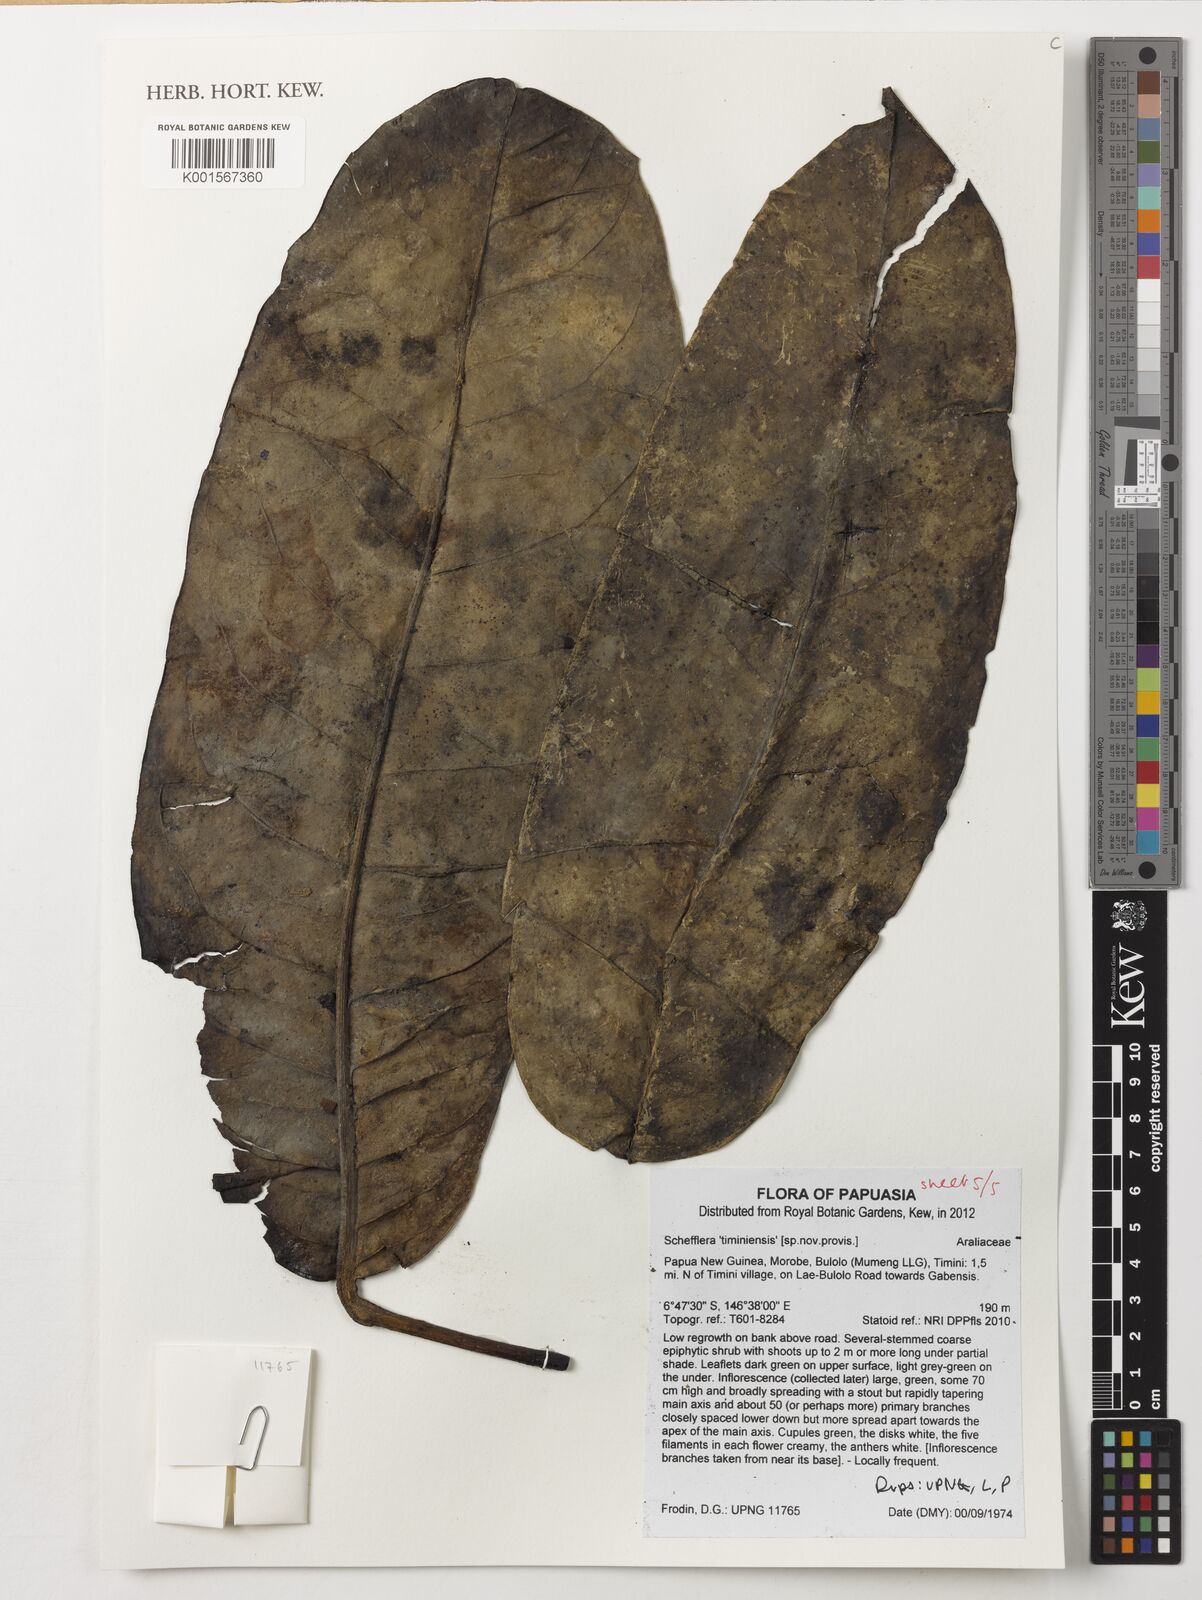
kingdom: Plantae
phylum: Tracheophyta
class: Magnoliopsida
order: Apiales
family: Araliaceae
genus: Schefflera
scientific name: Schefflera
